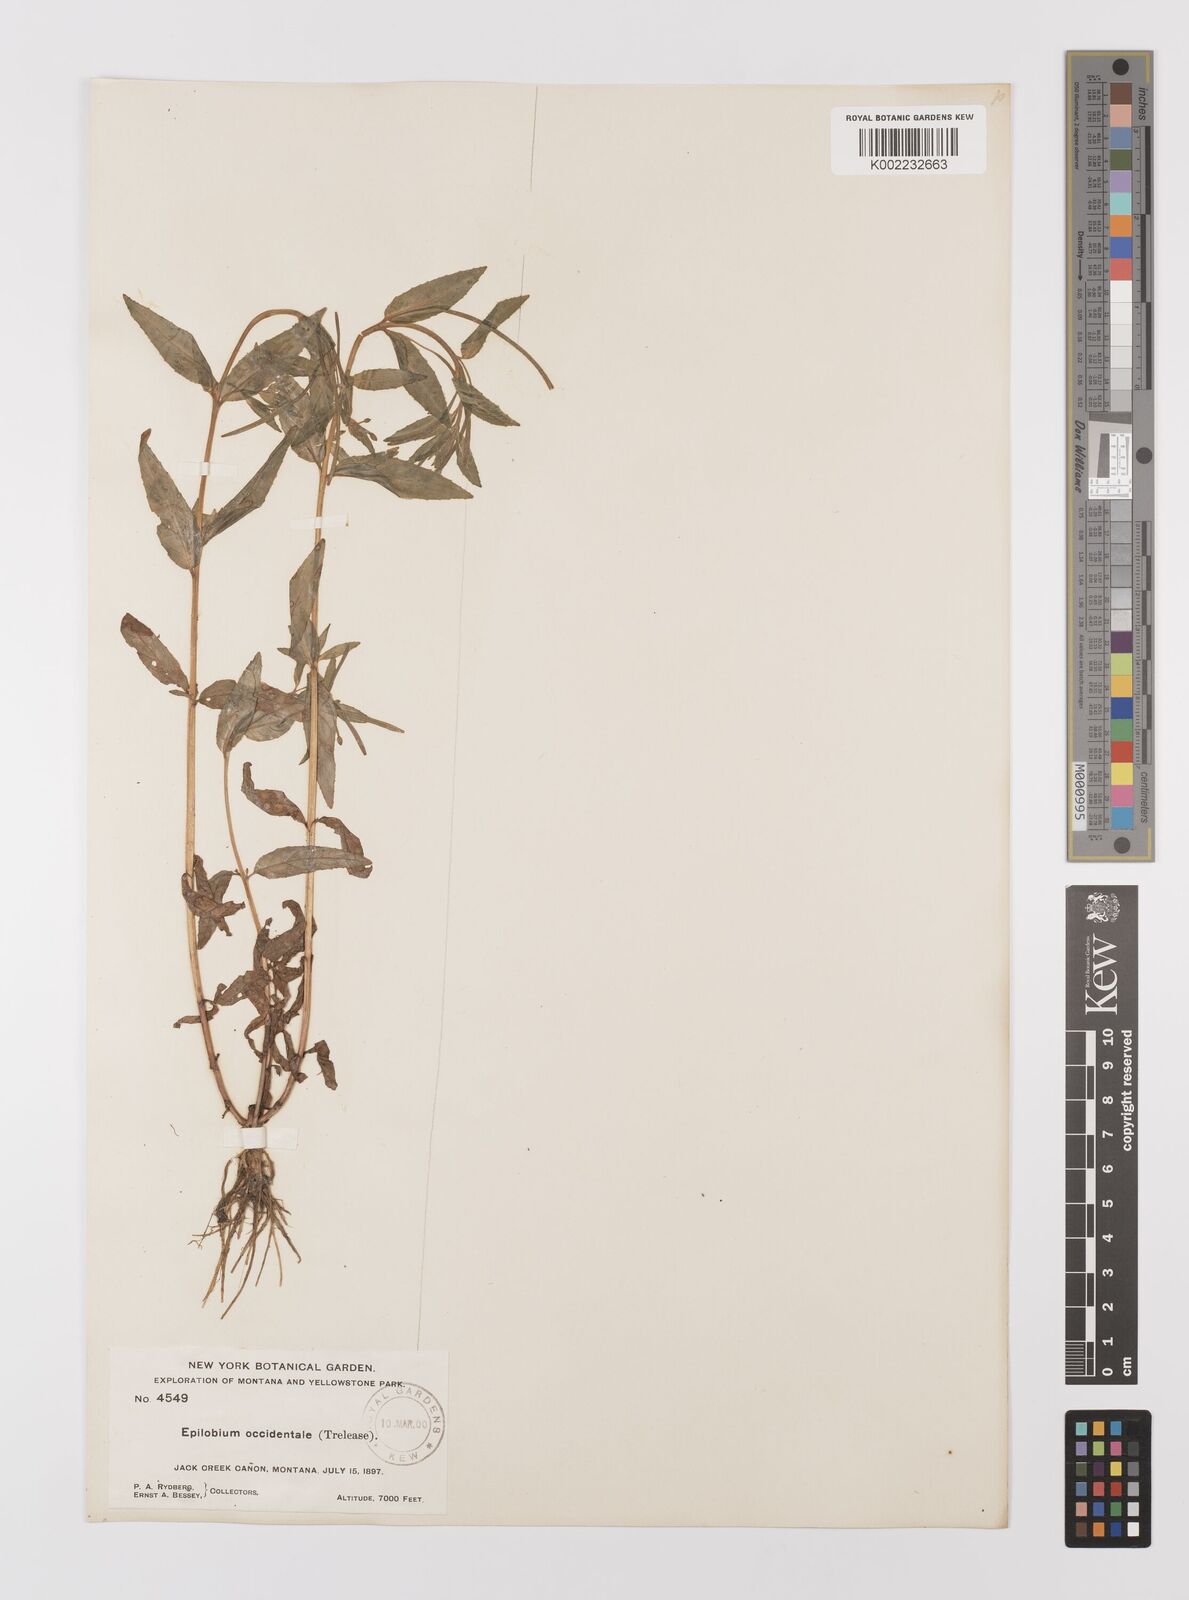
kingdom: Plantae
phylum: Tracheophyta
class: Magnoliopsida
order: Myrtales
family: Onagraceae
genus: Epilobium
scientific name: Epilobium ciliatum
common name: American willowherb
